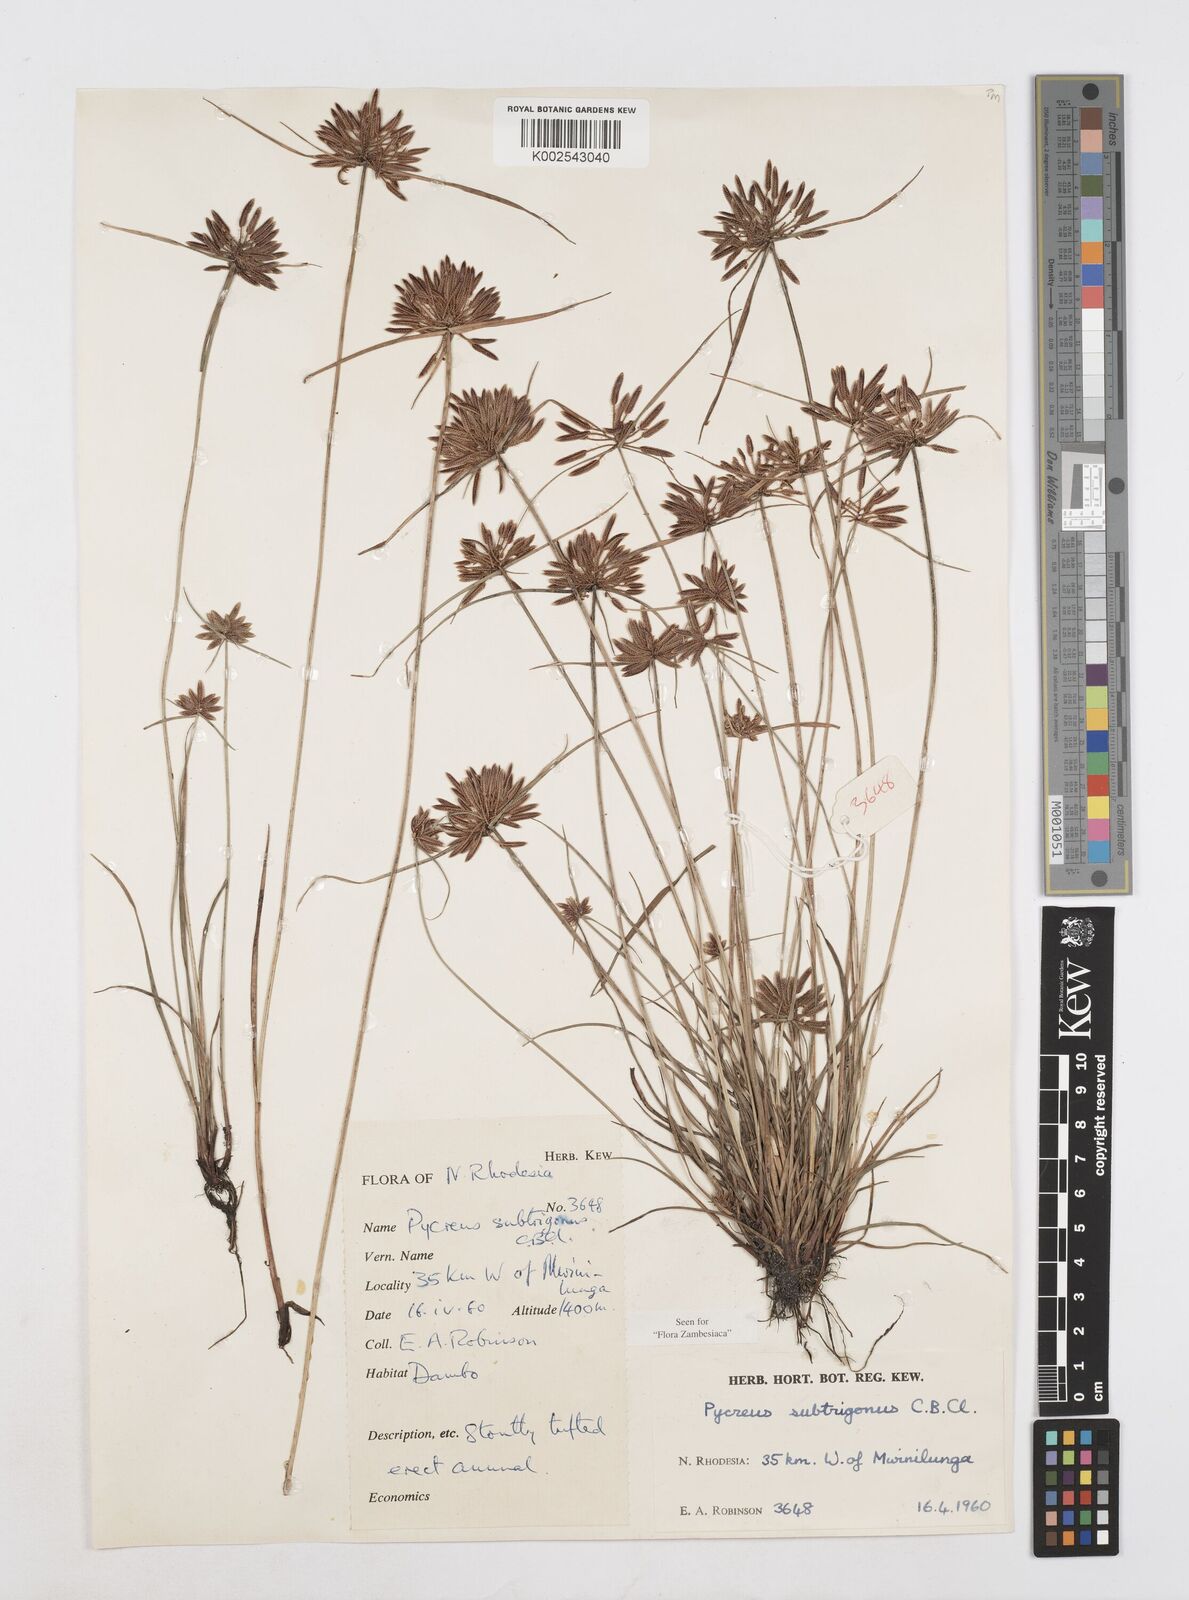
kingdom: Plantae
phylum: Tracheophyta
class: Liliopsida
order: Poales
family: Cyperaceae
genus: Cyperus
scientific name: Cyperus subtrigonus
